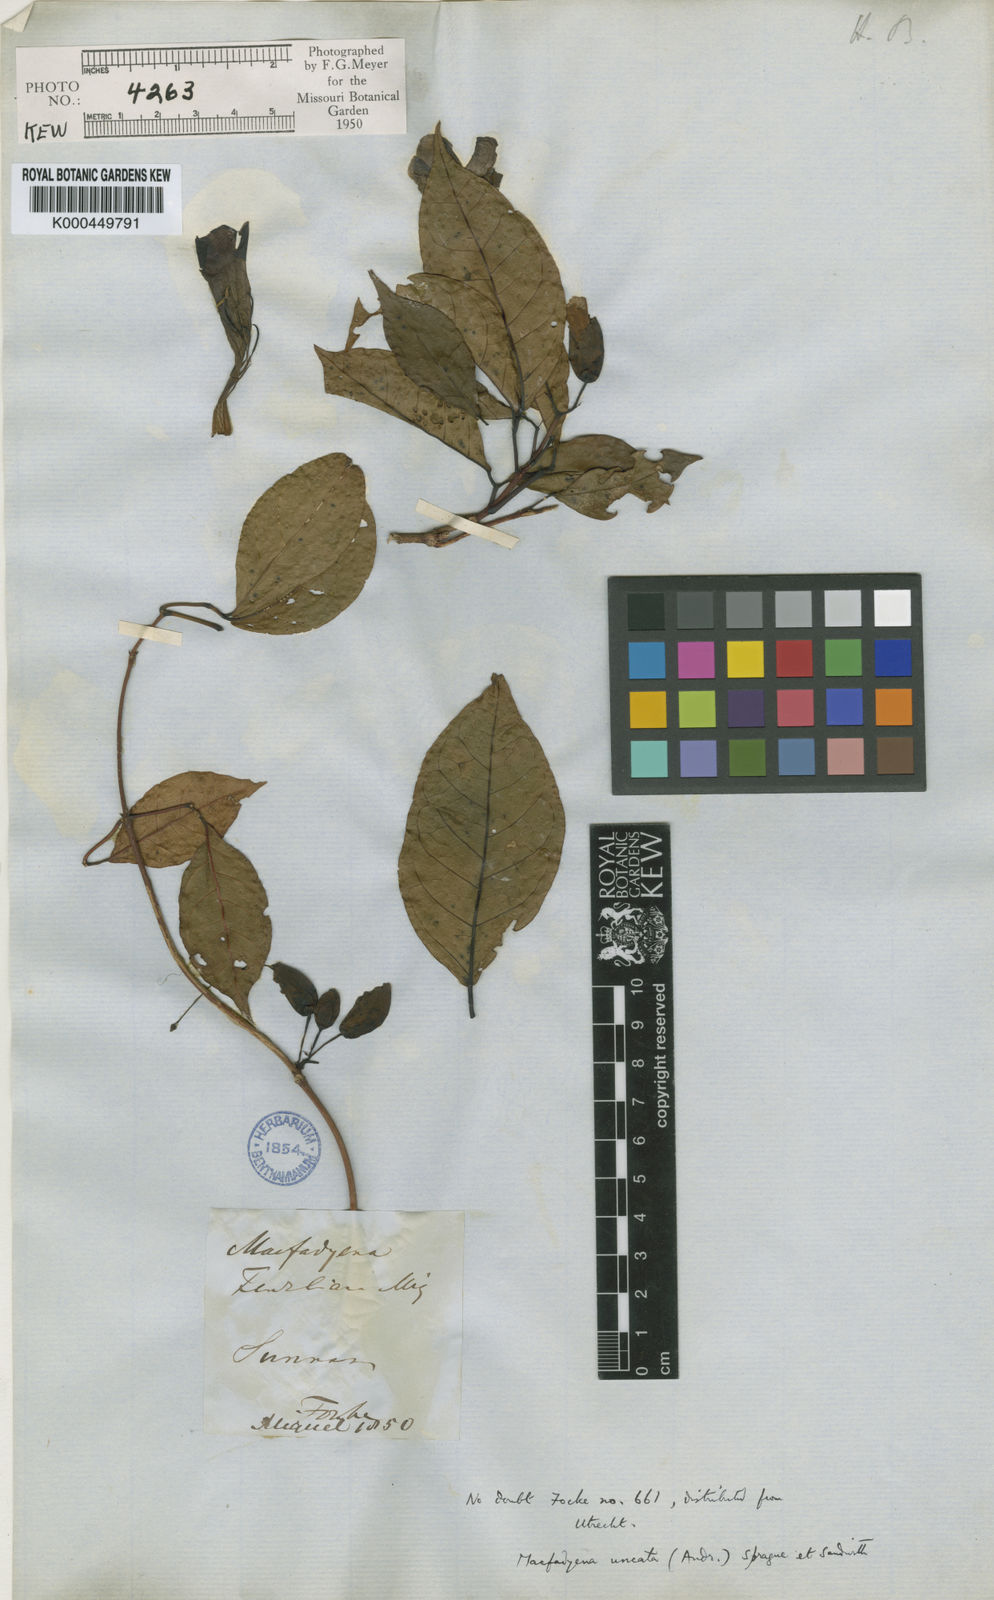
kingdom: Plantae
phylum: Tracheophyta
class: Magnoliopsida
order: Lamiales
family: Bignoniaceae
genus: Dolichandra
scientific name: Dolichandra uncata
